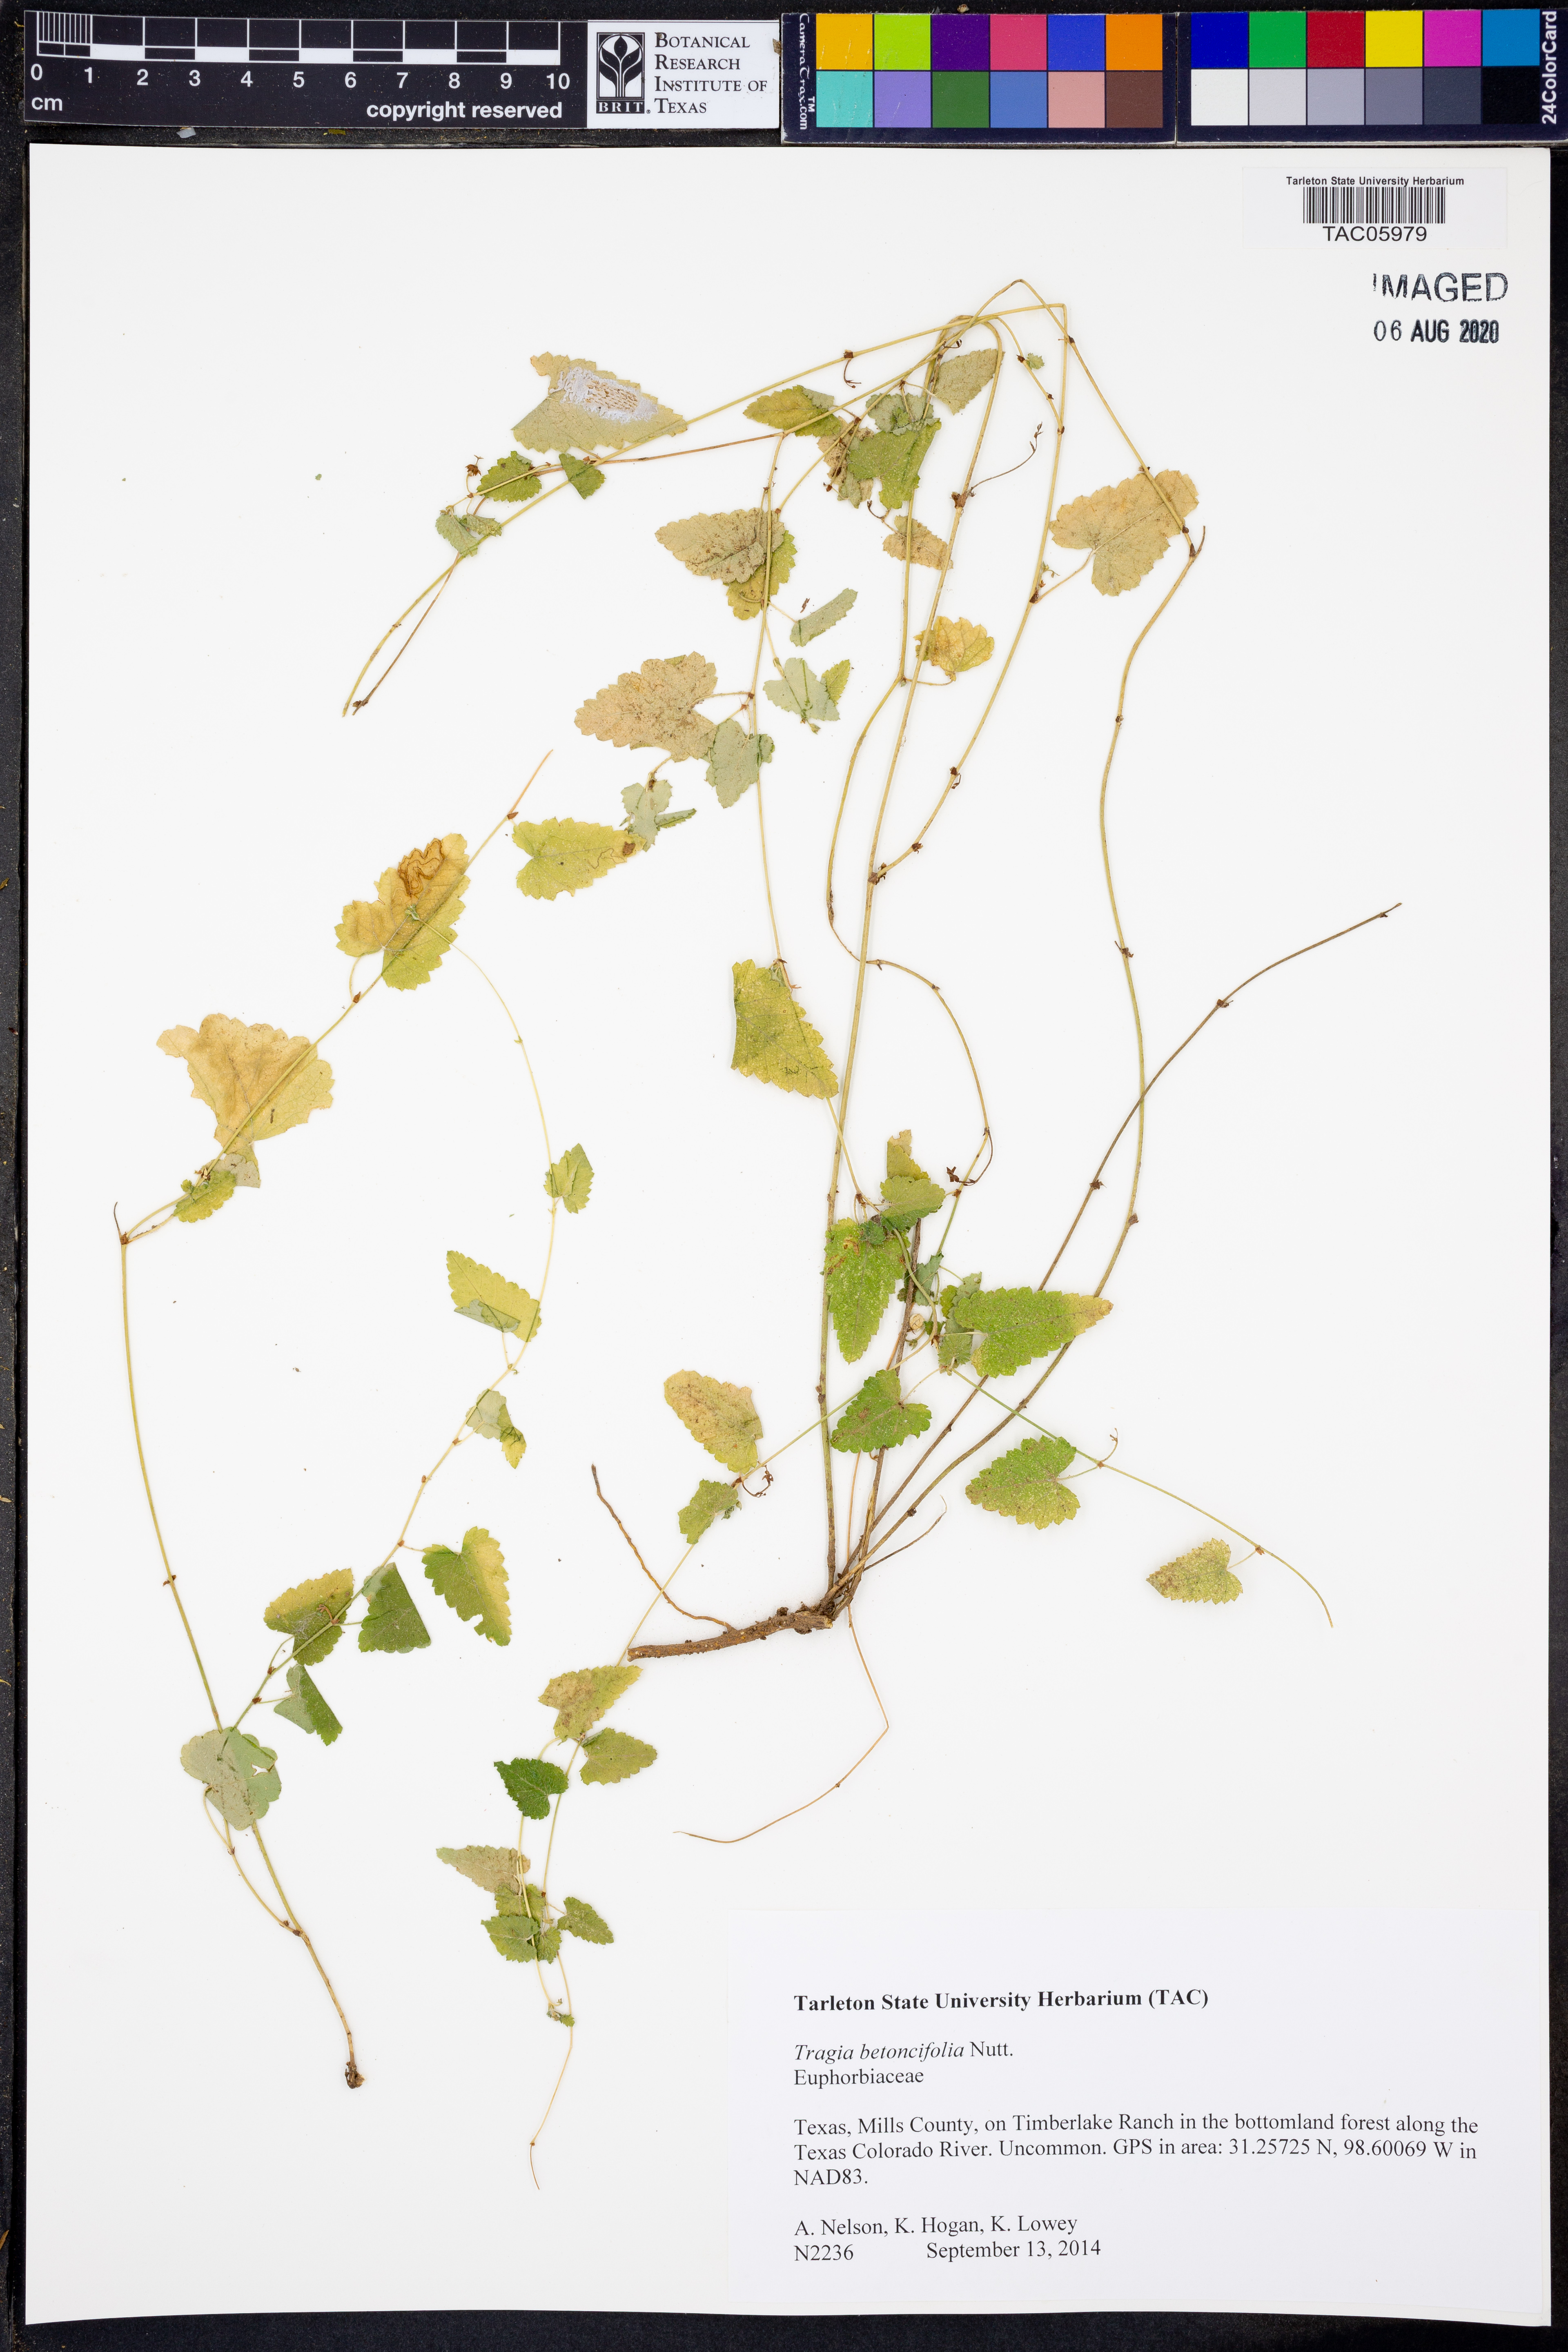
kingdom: Plantae
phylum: Tracheophyta
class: Magnoliopsida
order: Malpighiales
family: Euphorbiaceae
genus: Tragia
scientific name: Tragia betonicifolia
